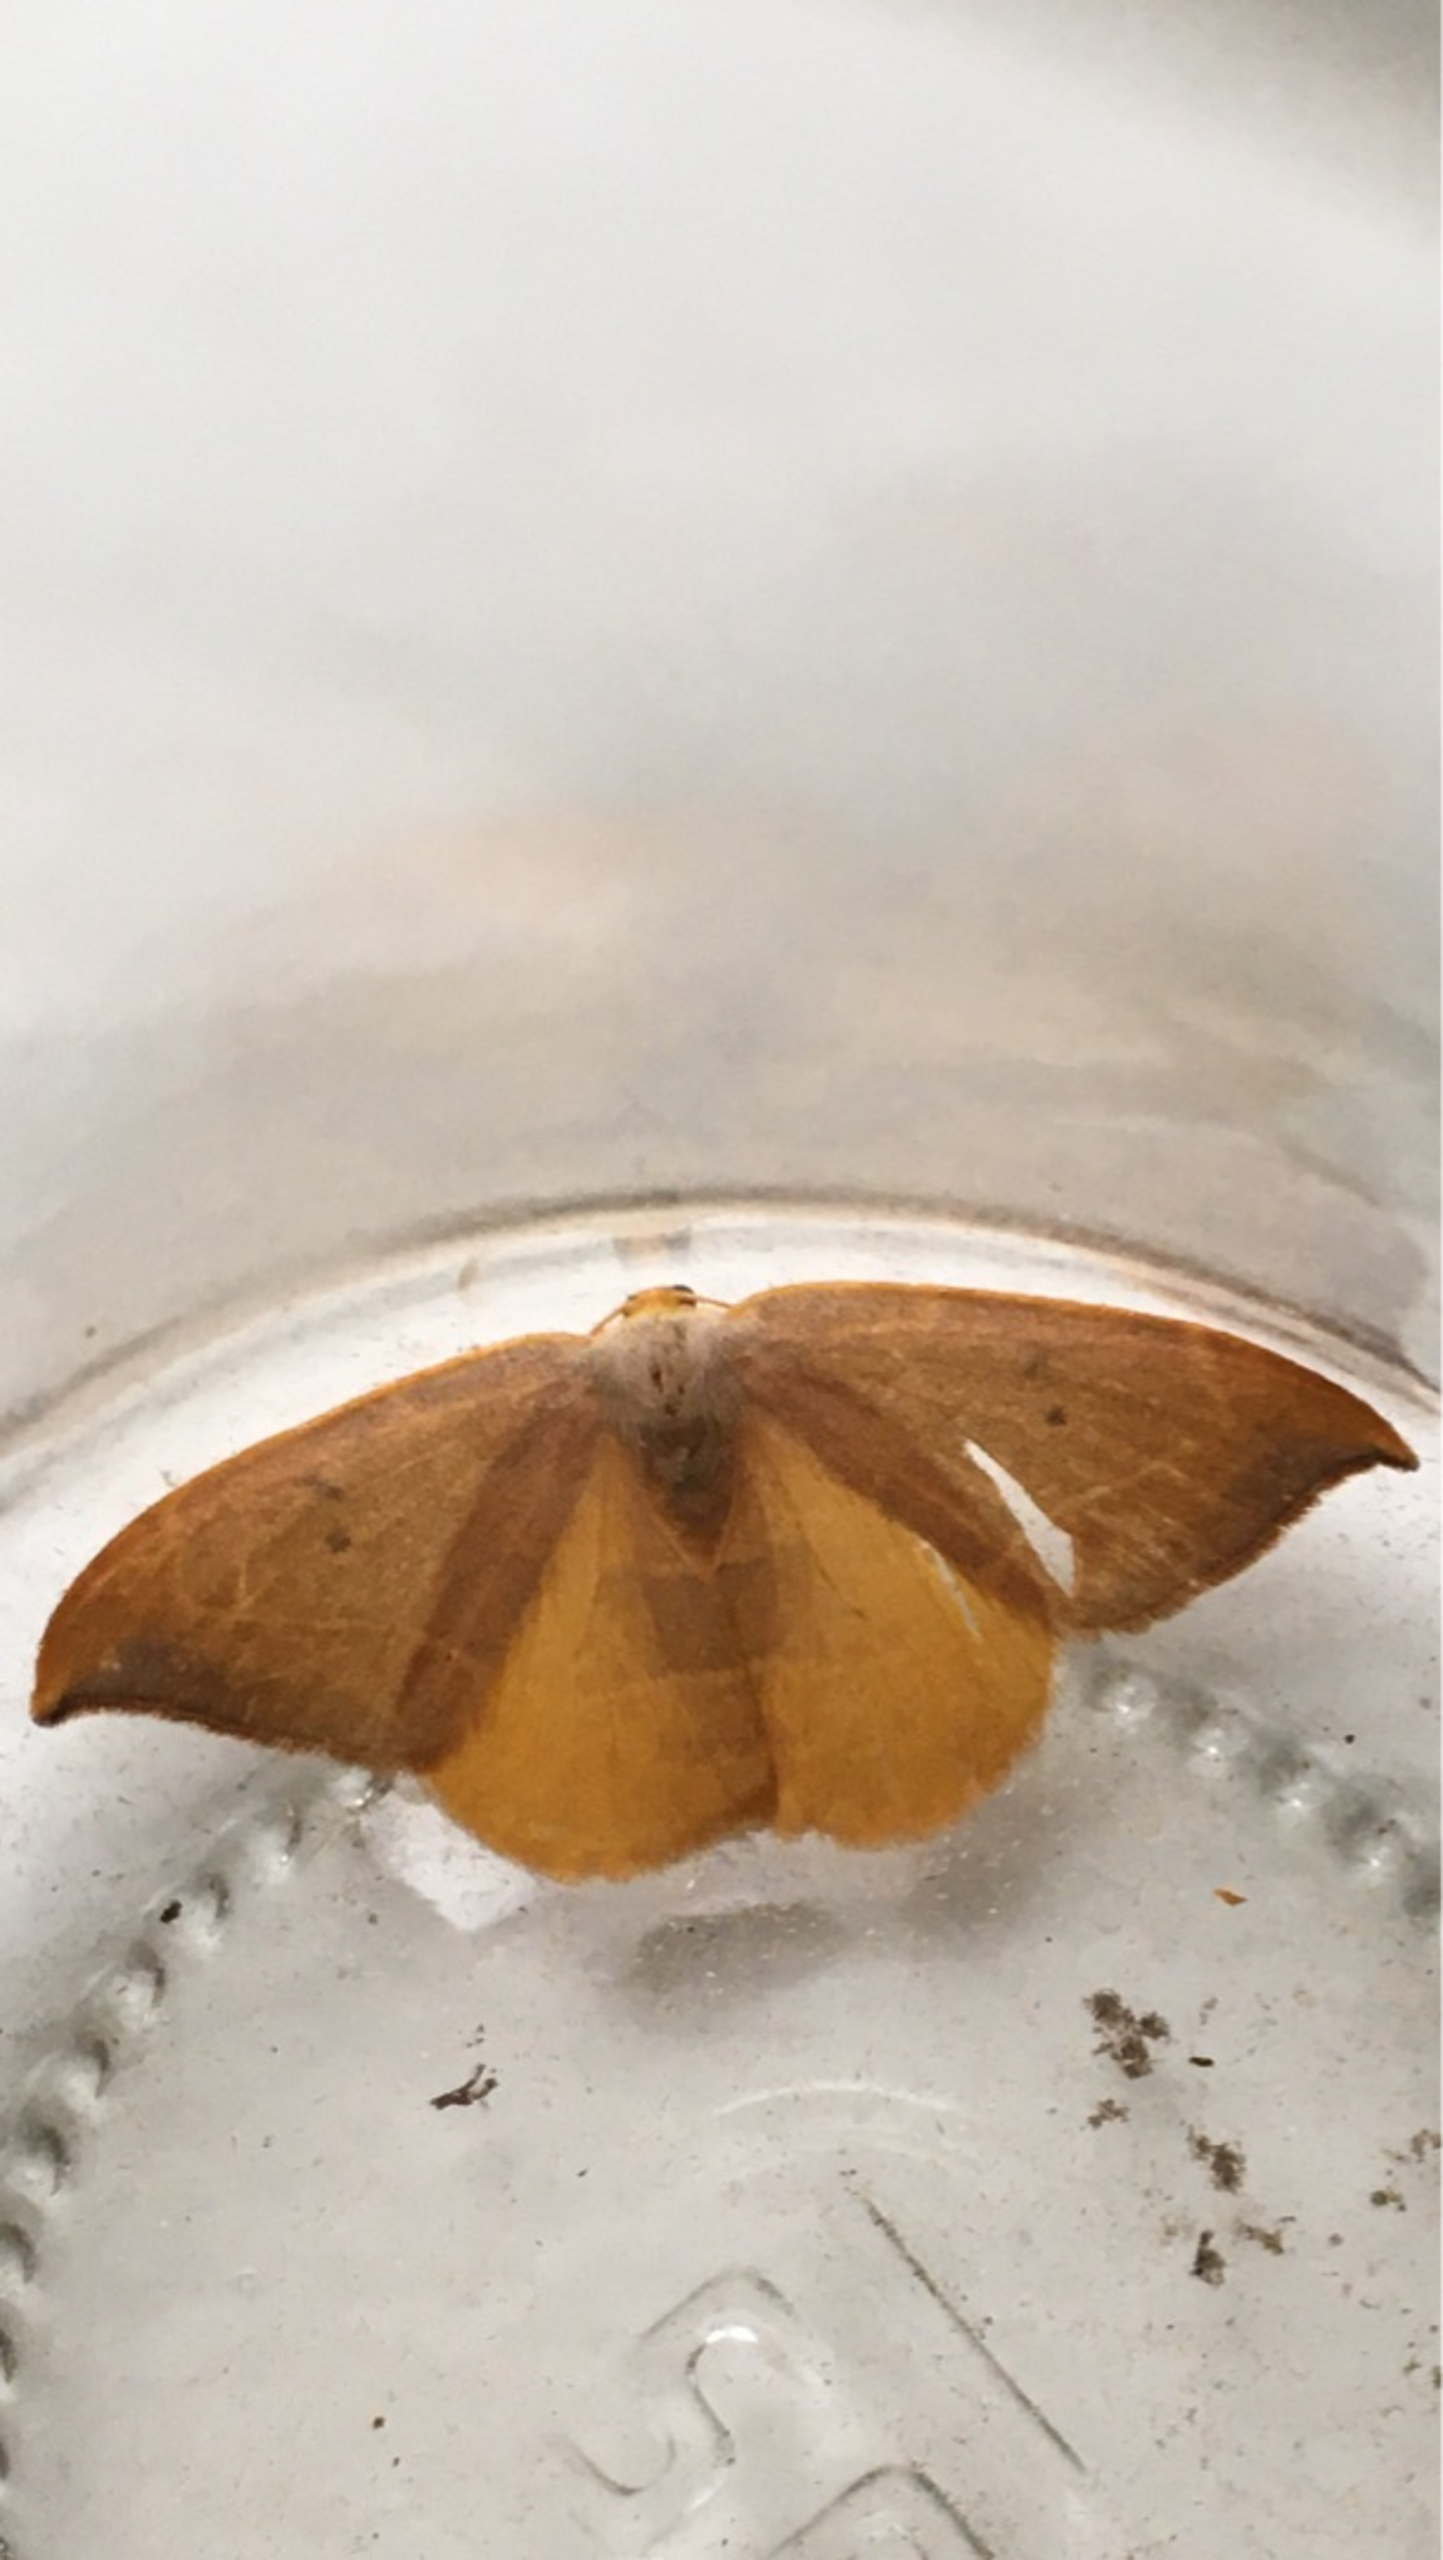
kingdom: Animalia
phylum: Arthropoda
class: Insecta
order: Lepidoptera
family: Drepanidae
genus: Watsonalla
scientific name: Watsonalla binaria
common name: Toplettet seglvinge
